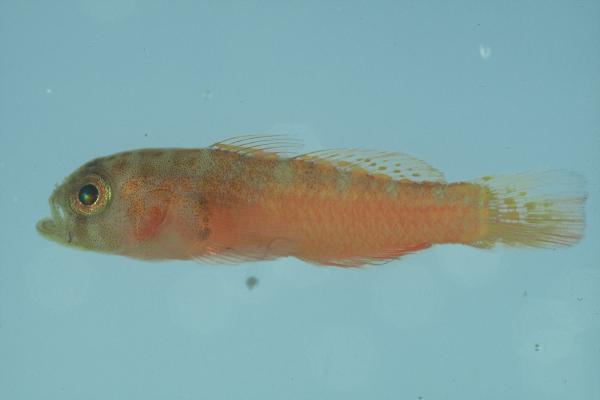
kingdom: Animalia
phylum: Chordata
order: Perciformes
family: Gobiidae
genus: Trimma
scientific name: Trimma omanense
